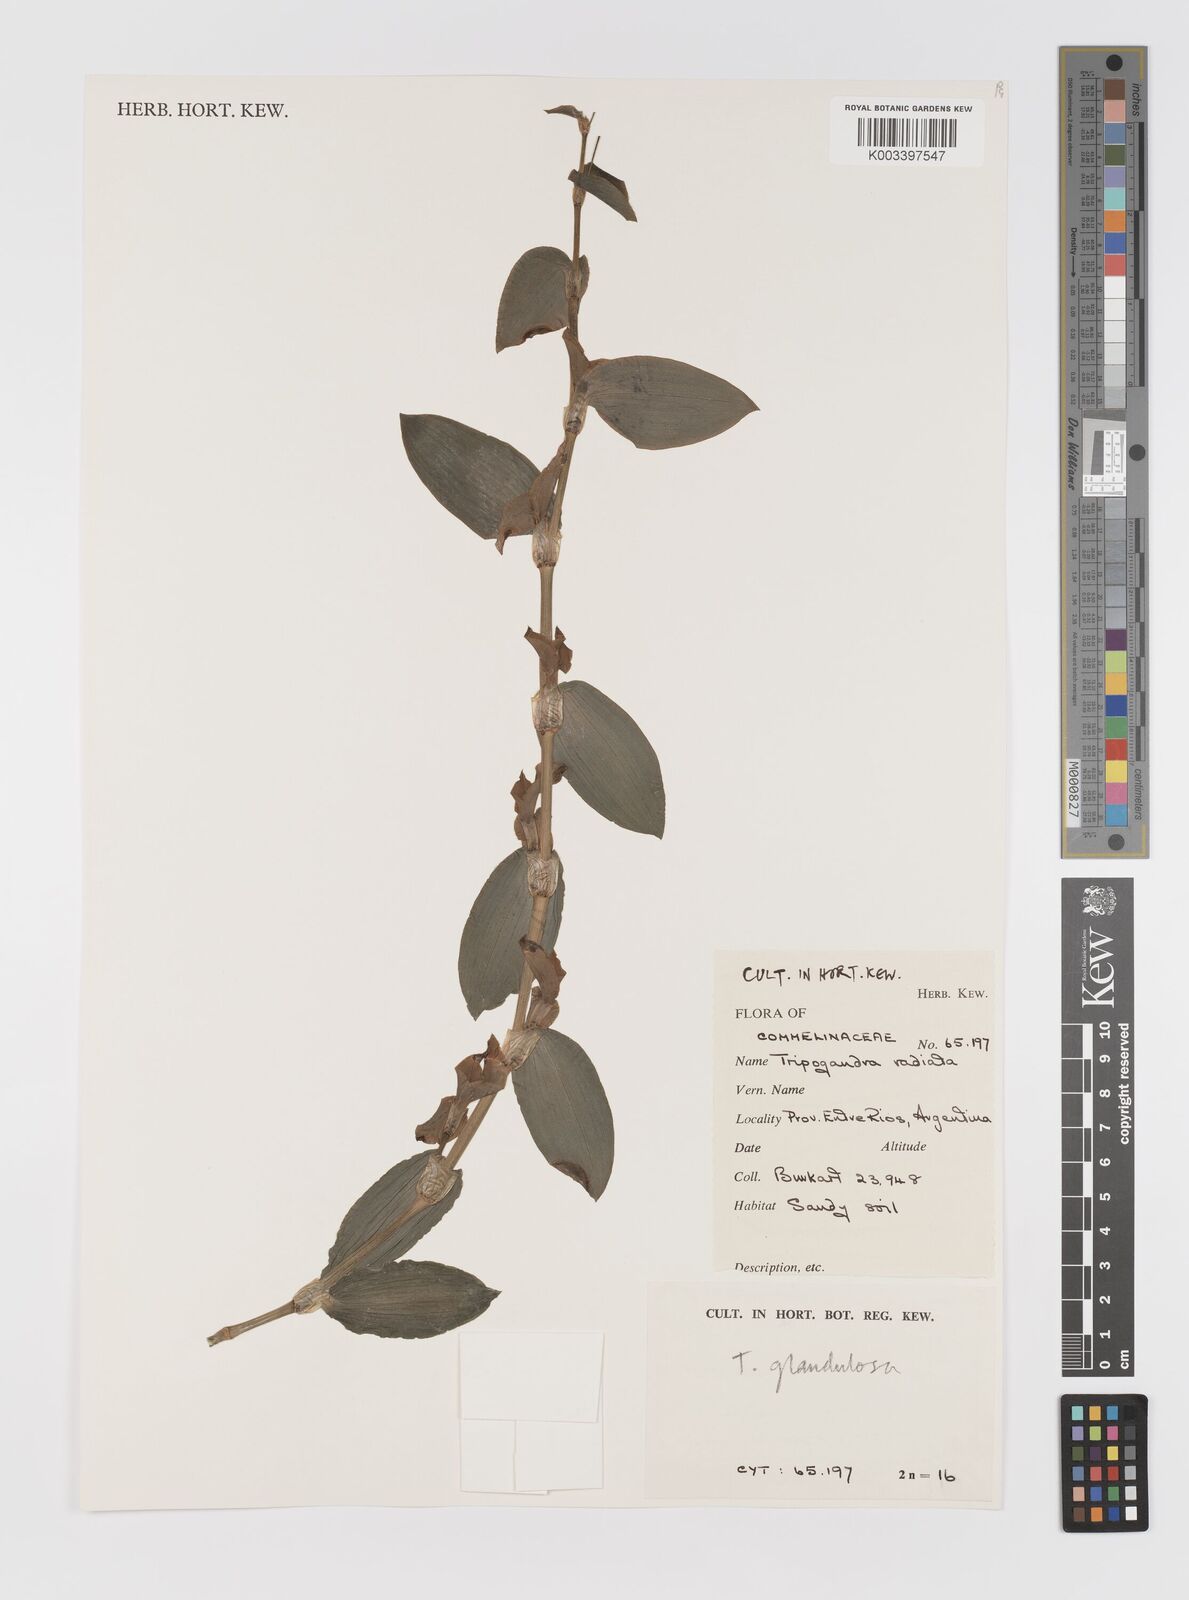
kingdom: Plantae
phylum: Tracheophyta
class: Liliopsida
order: Commelinales
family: Commelinaceae
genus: Callisia
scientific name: Callisia glandulosa
